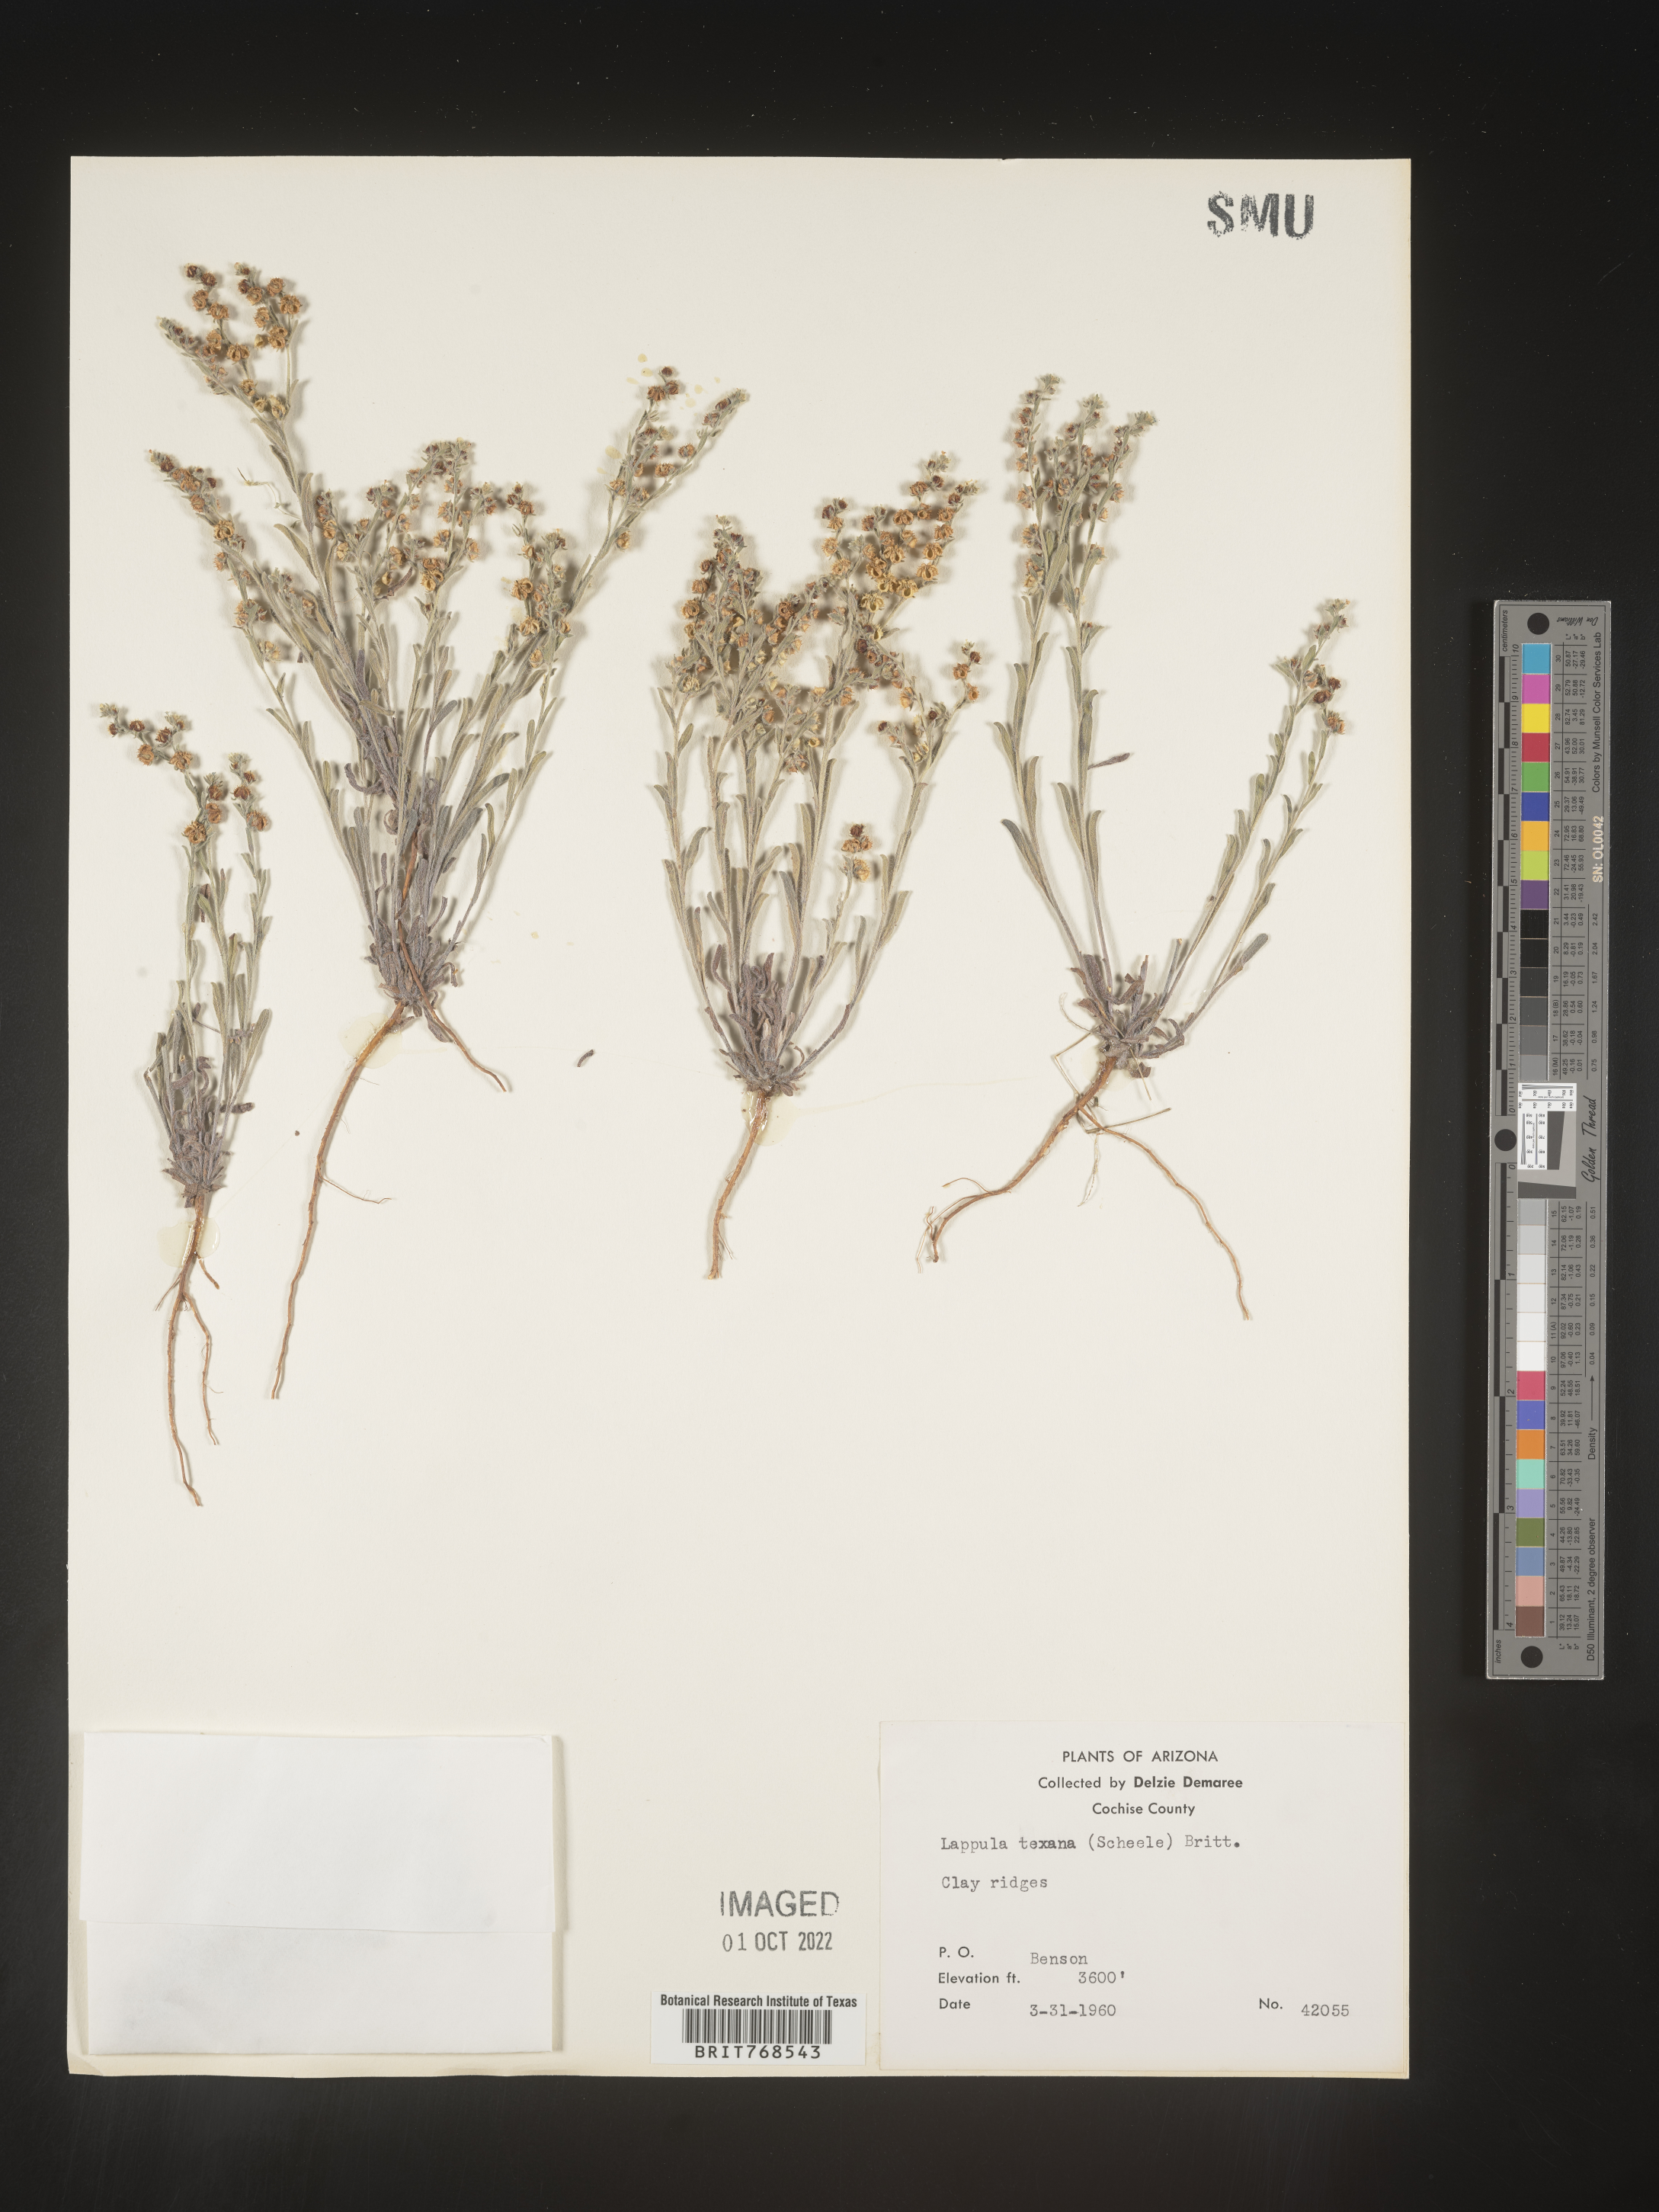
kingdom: Plantae
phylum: Tracheophyta
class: Magnoliopsida
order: Boraginales
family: Boraginaceae
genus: Lappula
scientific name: Lappula
